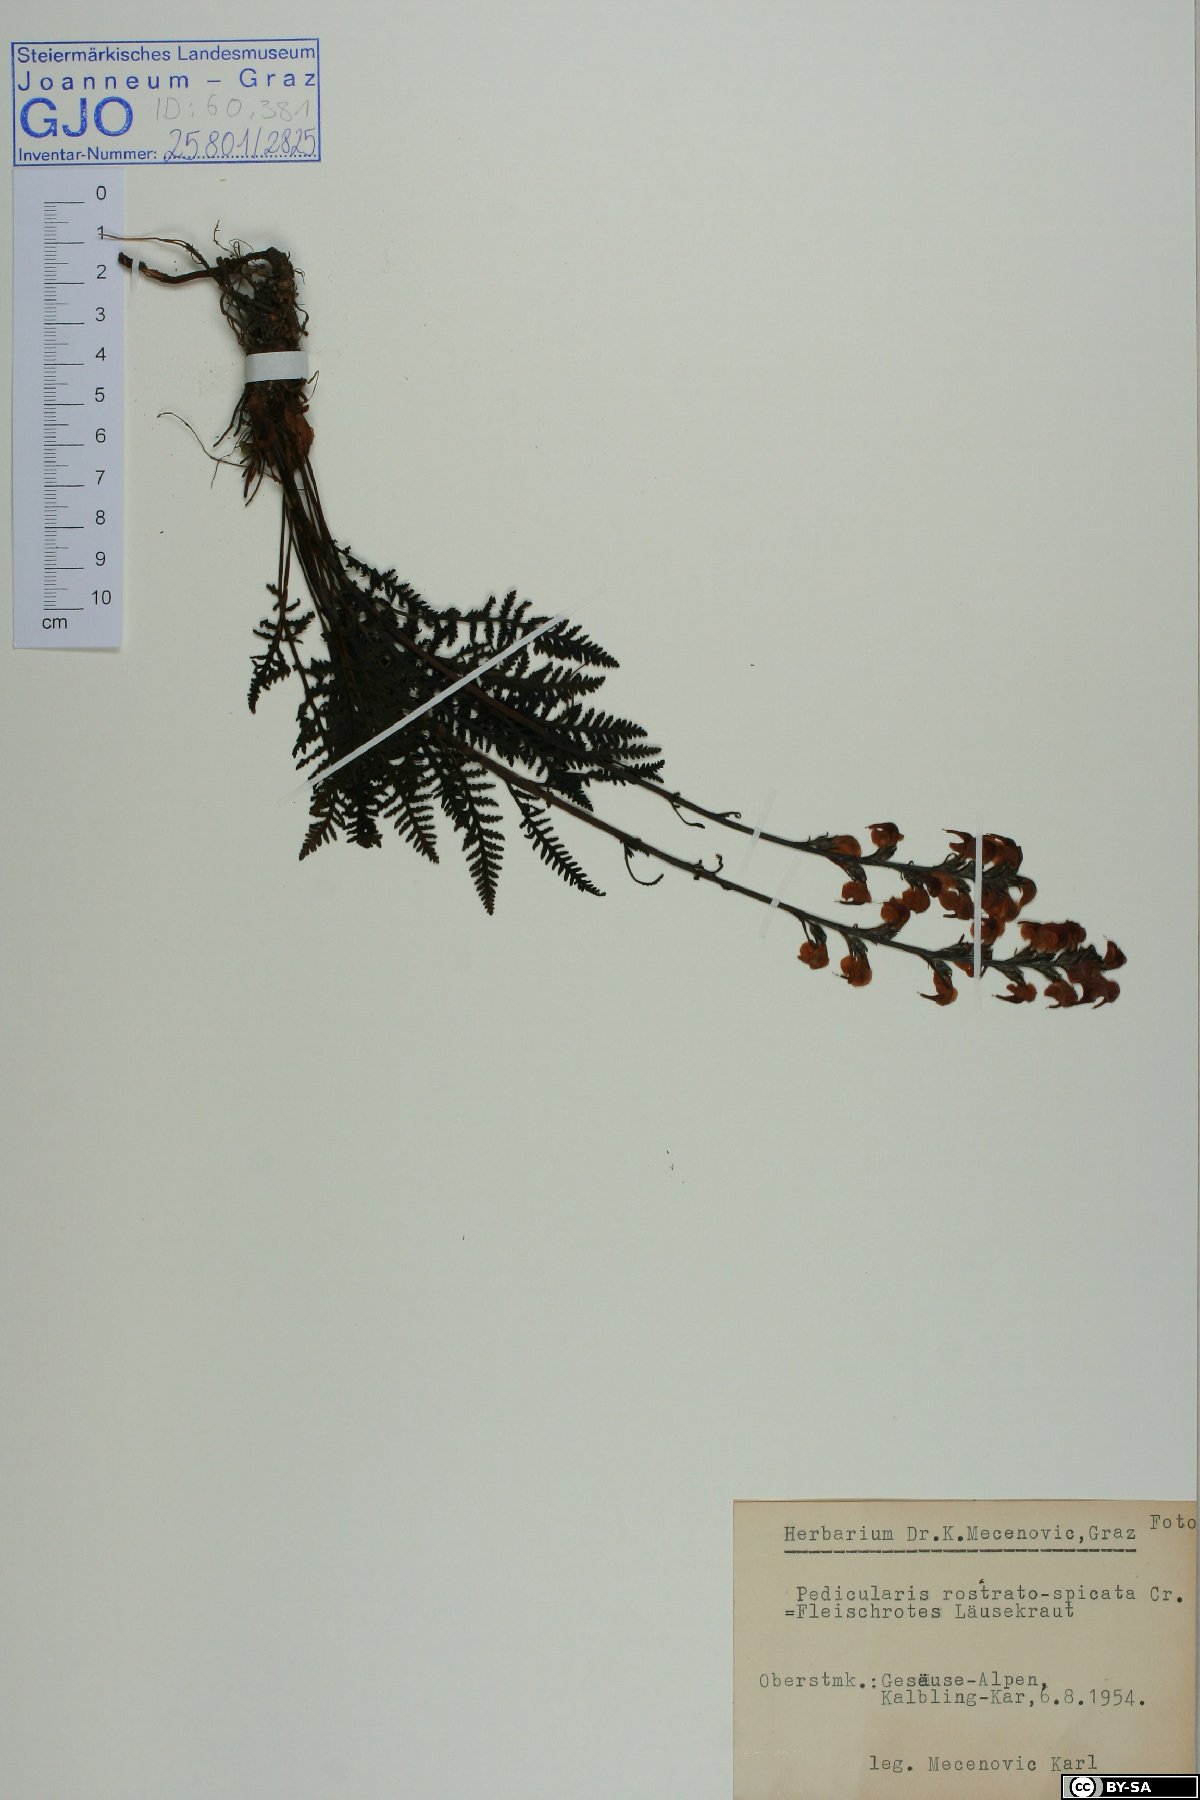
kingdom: Plantae
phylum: Tracheophyta
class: Magnoliopsida
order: Lamiales
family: Orobanchaceae
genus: Pedicularis
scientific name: Pedicularis rostratospicata
